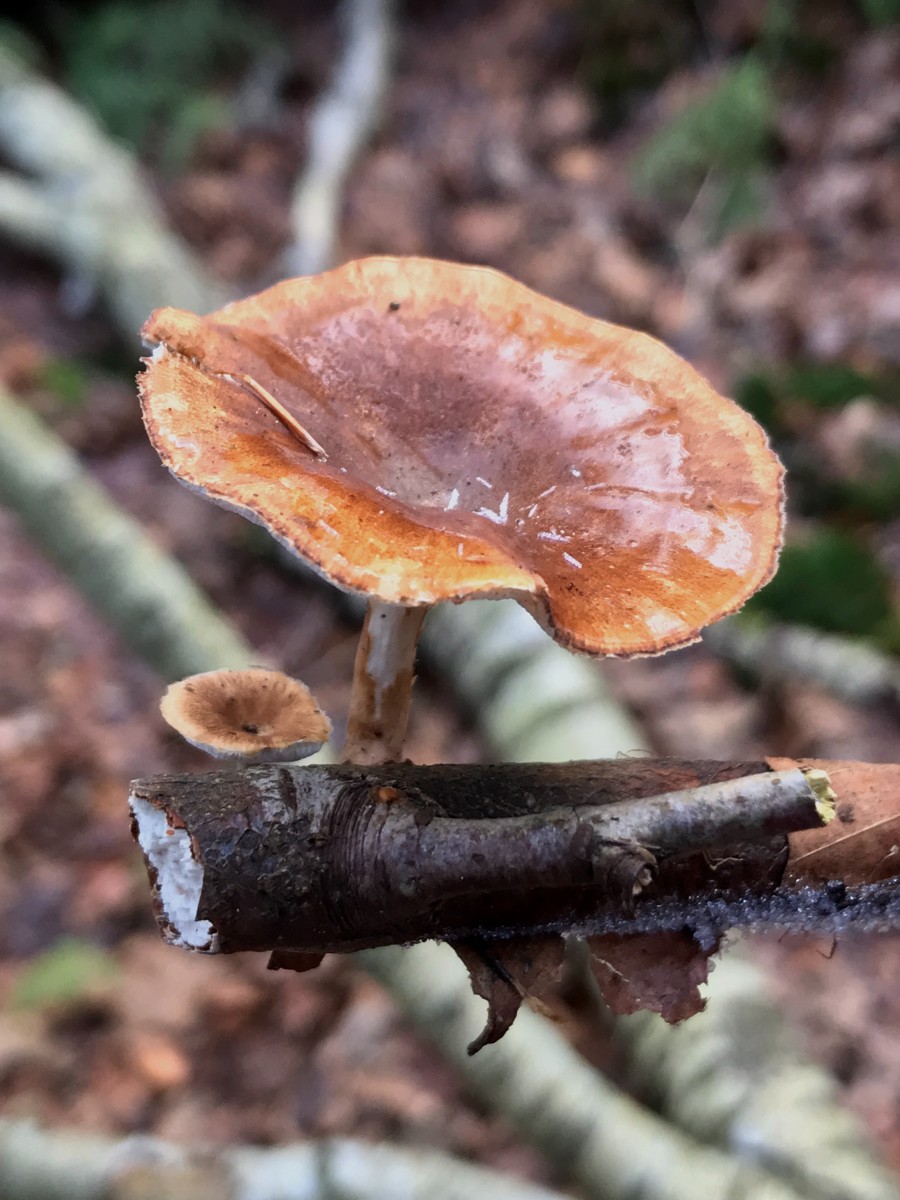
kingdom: Fungi
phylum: Basidiomycota
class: Agaricomycetes
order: Polyporales
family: Polyporaceae
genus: Lentinus
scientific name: Lentinus brumalis
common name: vinter-stilkporesvamp
